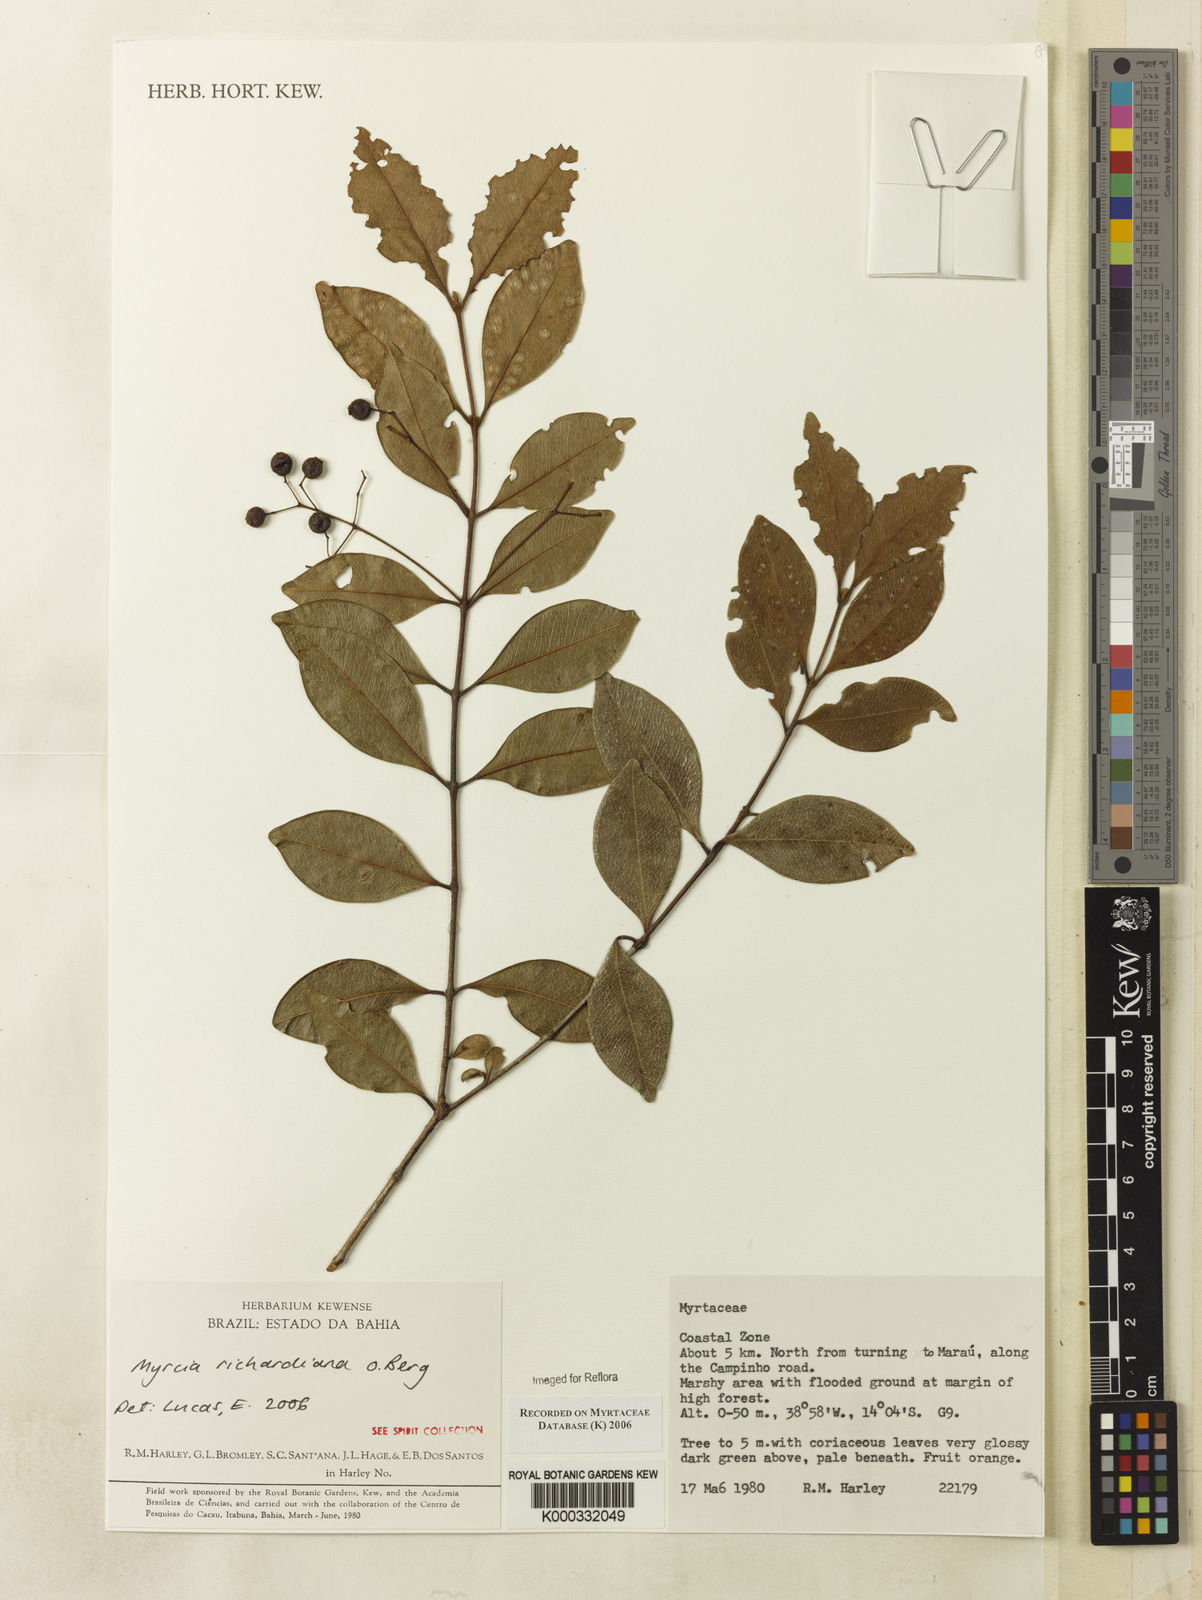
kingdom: Plantae
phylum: Tracheophyta
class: Magnoliopsida
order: Myrtales
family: Myrtaceae
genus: Myrcia
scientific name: Myrcia richardiana
